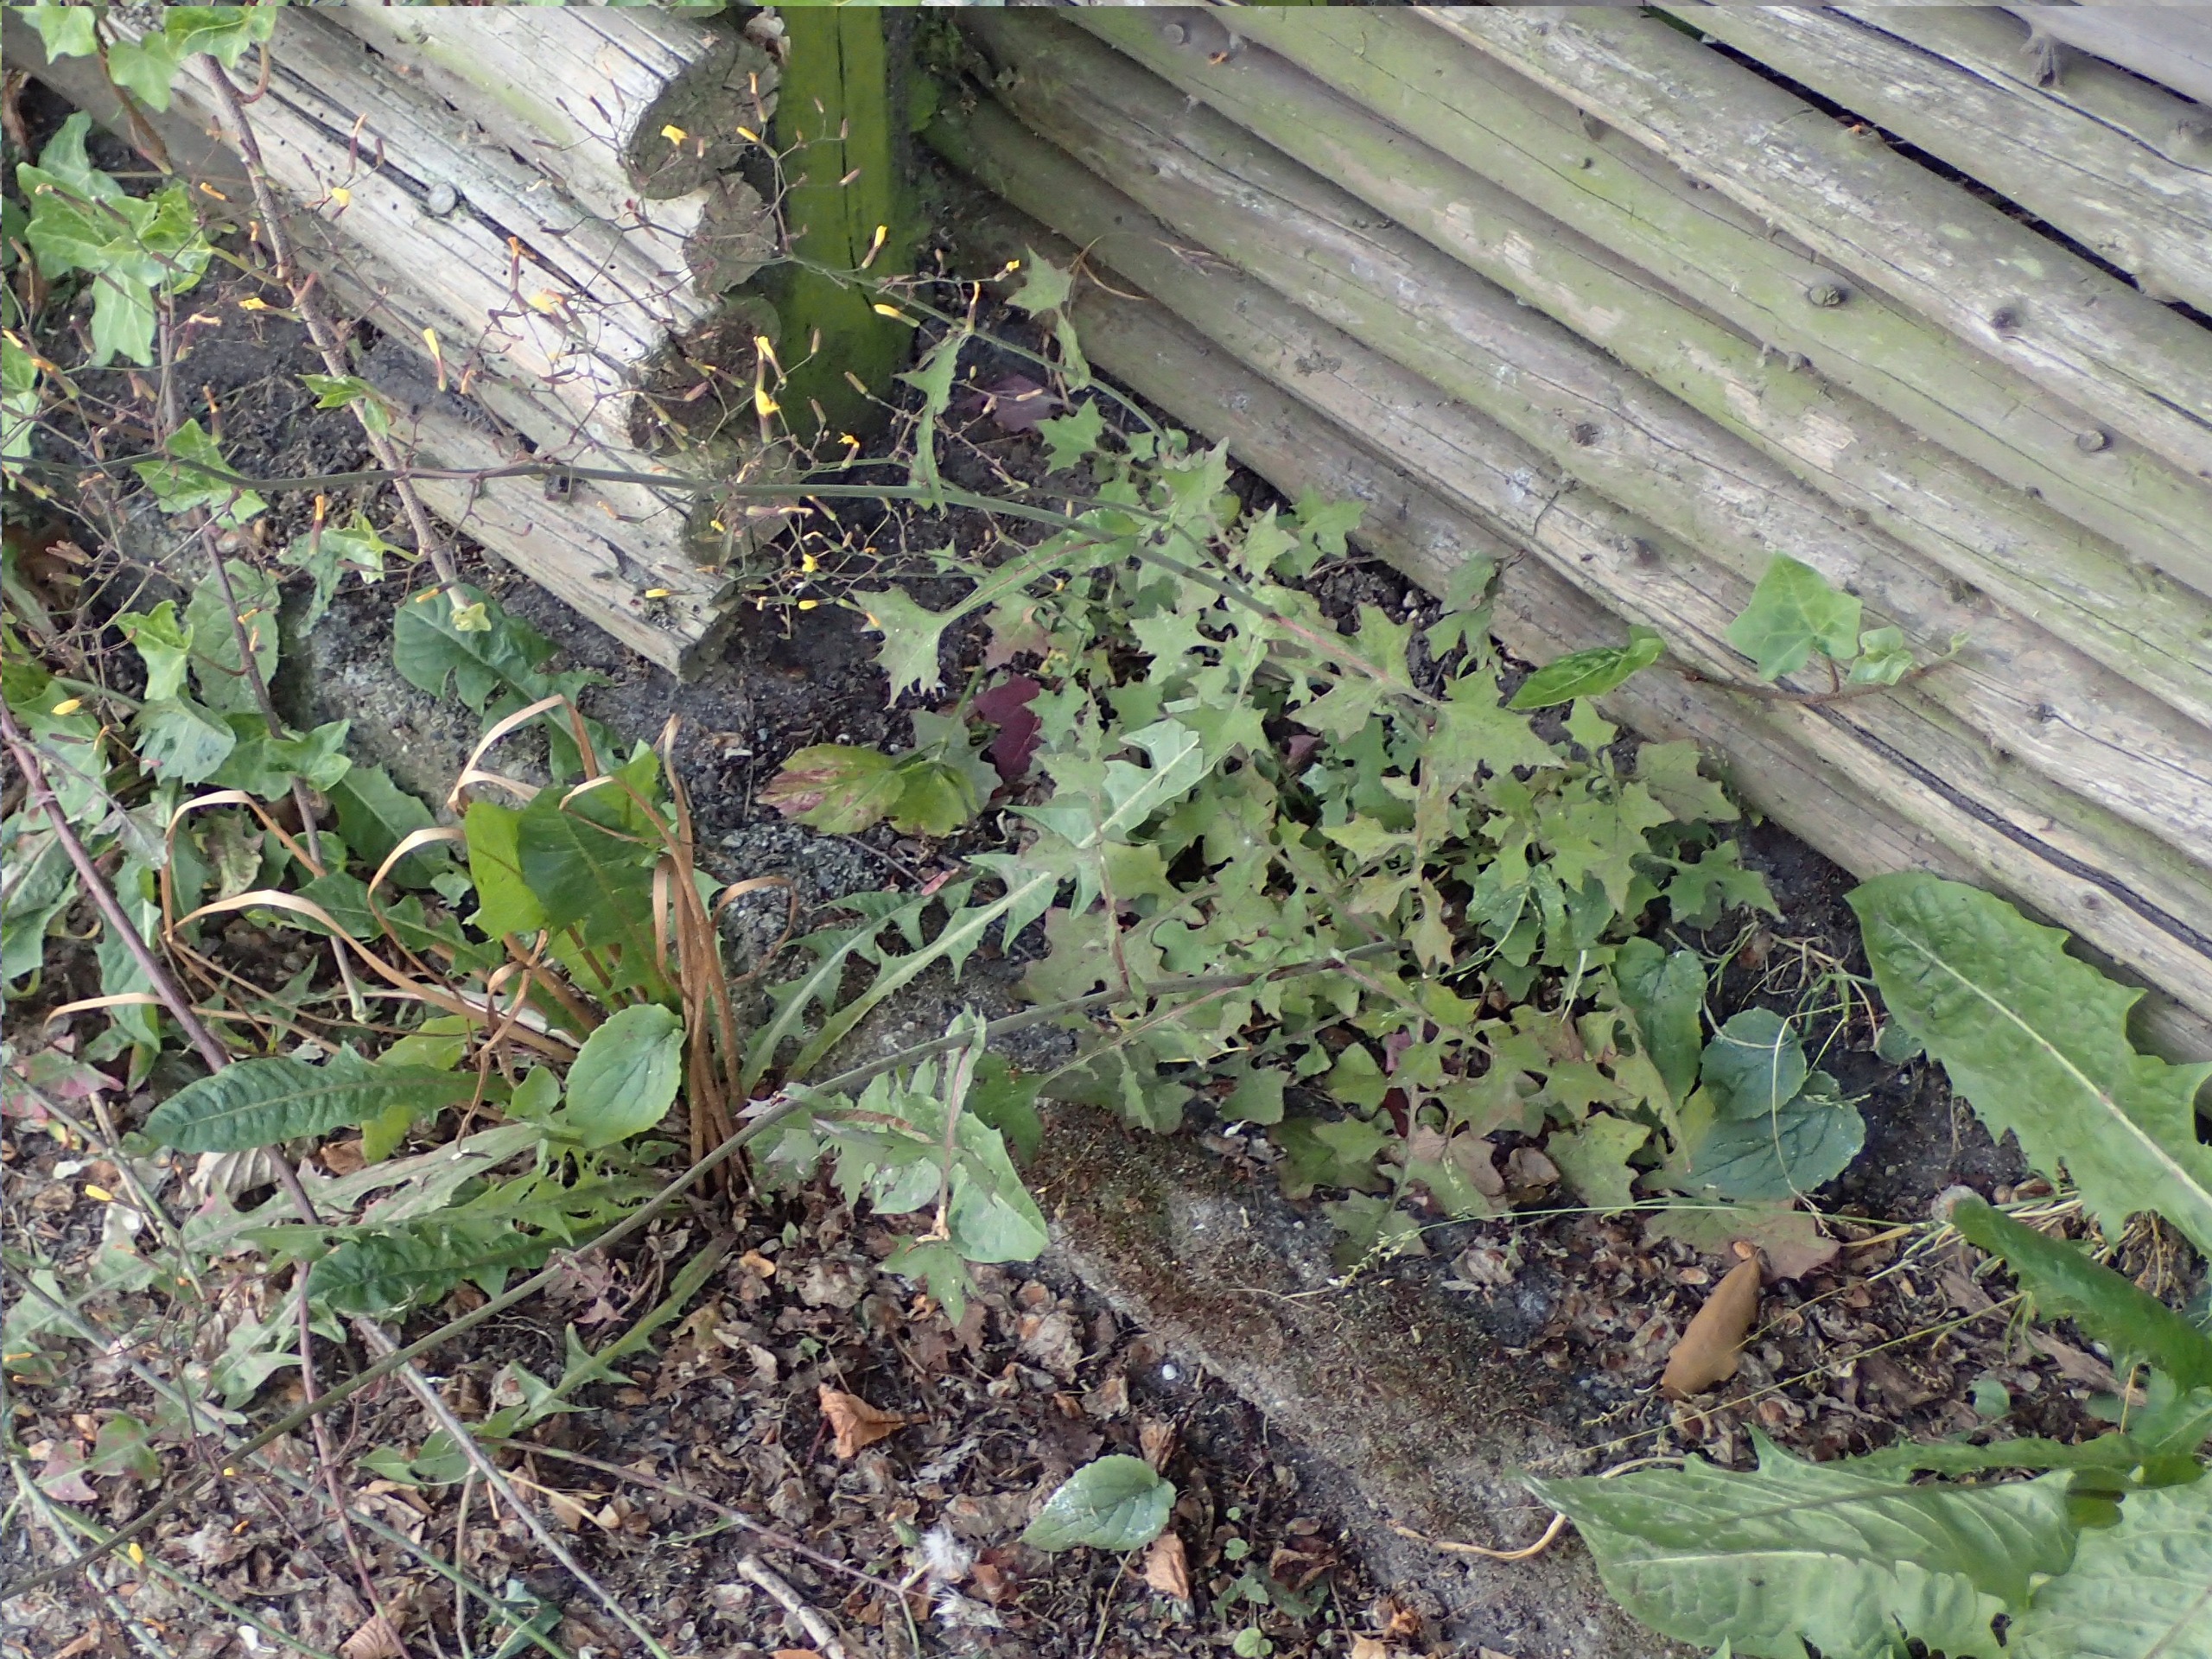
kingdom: Plantae
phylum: Tracheophyta
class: Magnoliopsida
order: Asterales
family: Asteraceae
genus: Mycelis
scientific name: Mycelis muralis
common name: Skov-salat
